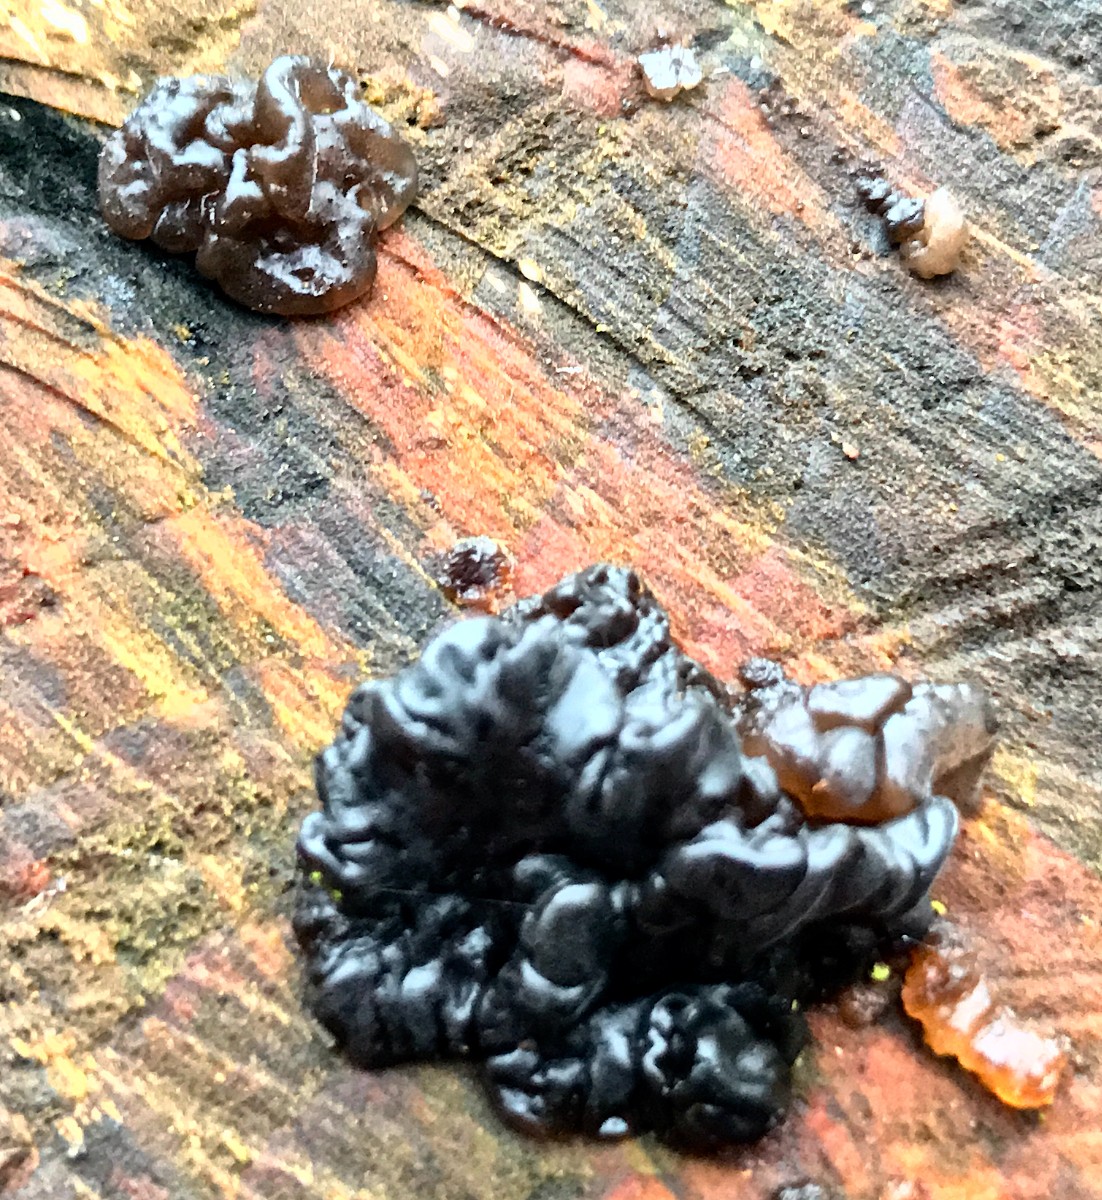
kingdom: Fungi
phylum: Basidiomycota
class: Agaricomycetes
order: Auriculariales
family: Auriculariaceae
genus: Exidia
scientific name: Exidia nigricans
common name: almindelig bævretop
